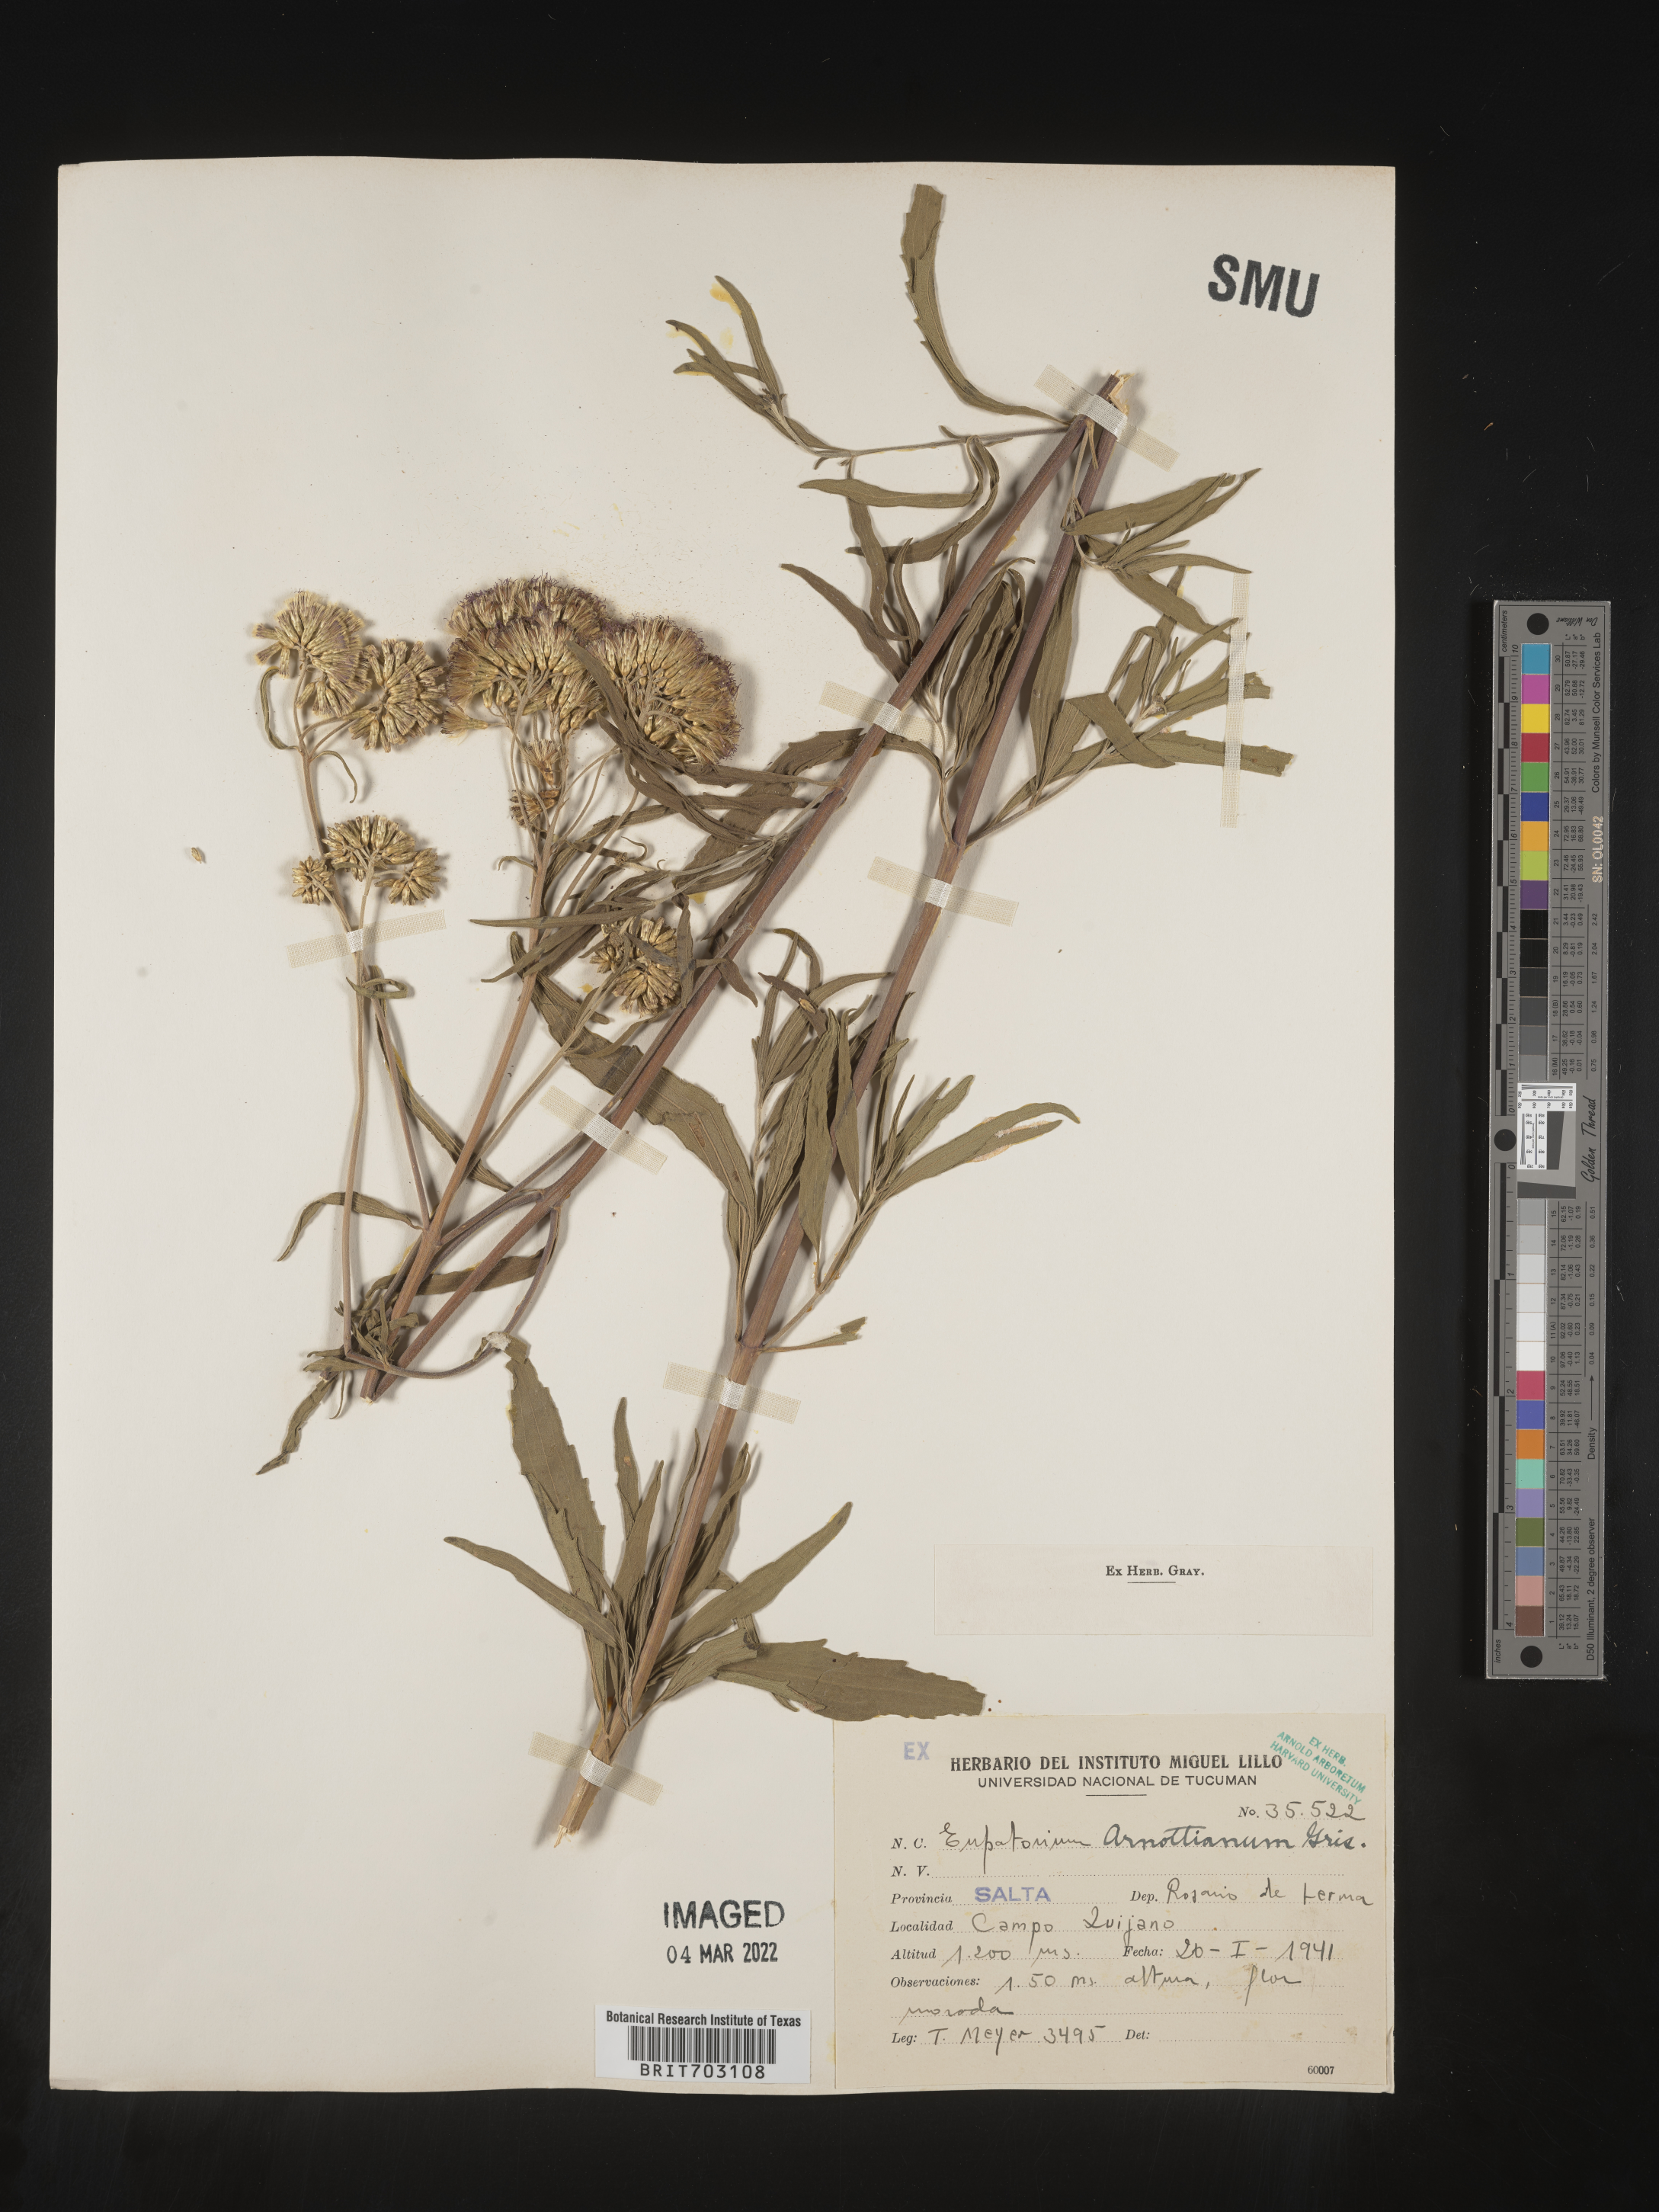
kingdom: Plantae
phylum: Tracheophyta
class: Magnoliopsida
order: Asterales
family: Asteraceae
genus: Eupatorium
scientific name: Eupatorium
